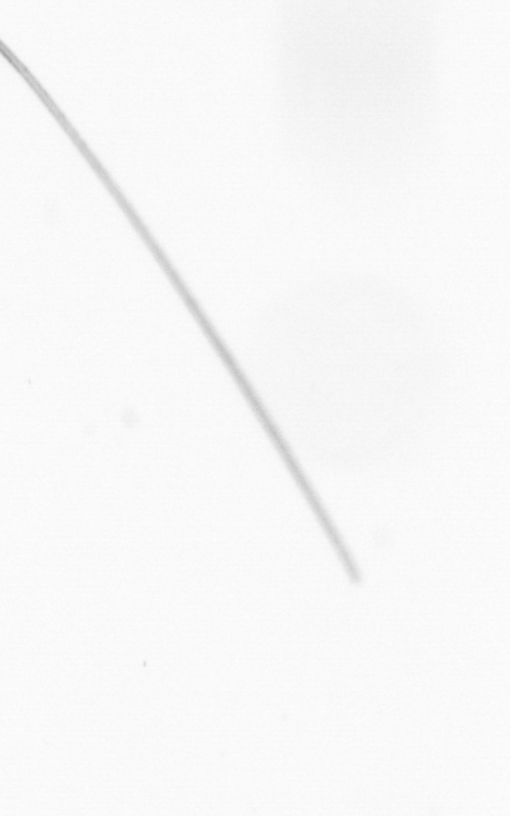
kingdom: Chromista
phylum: Ochrophyta
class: Bacillariophyceae
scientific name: Bacillariophyceae
